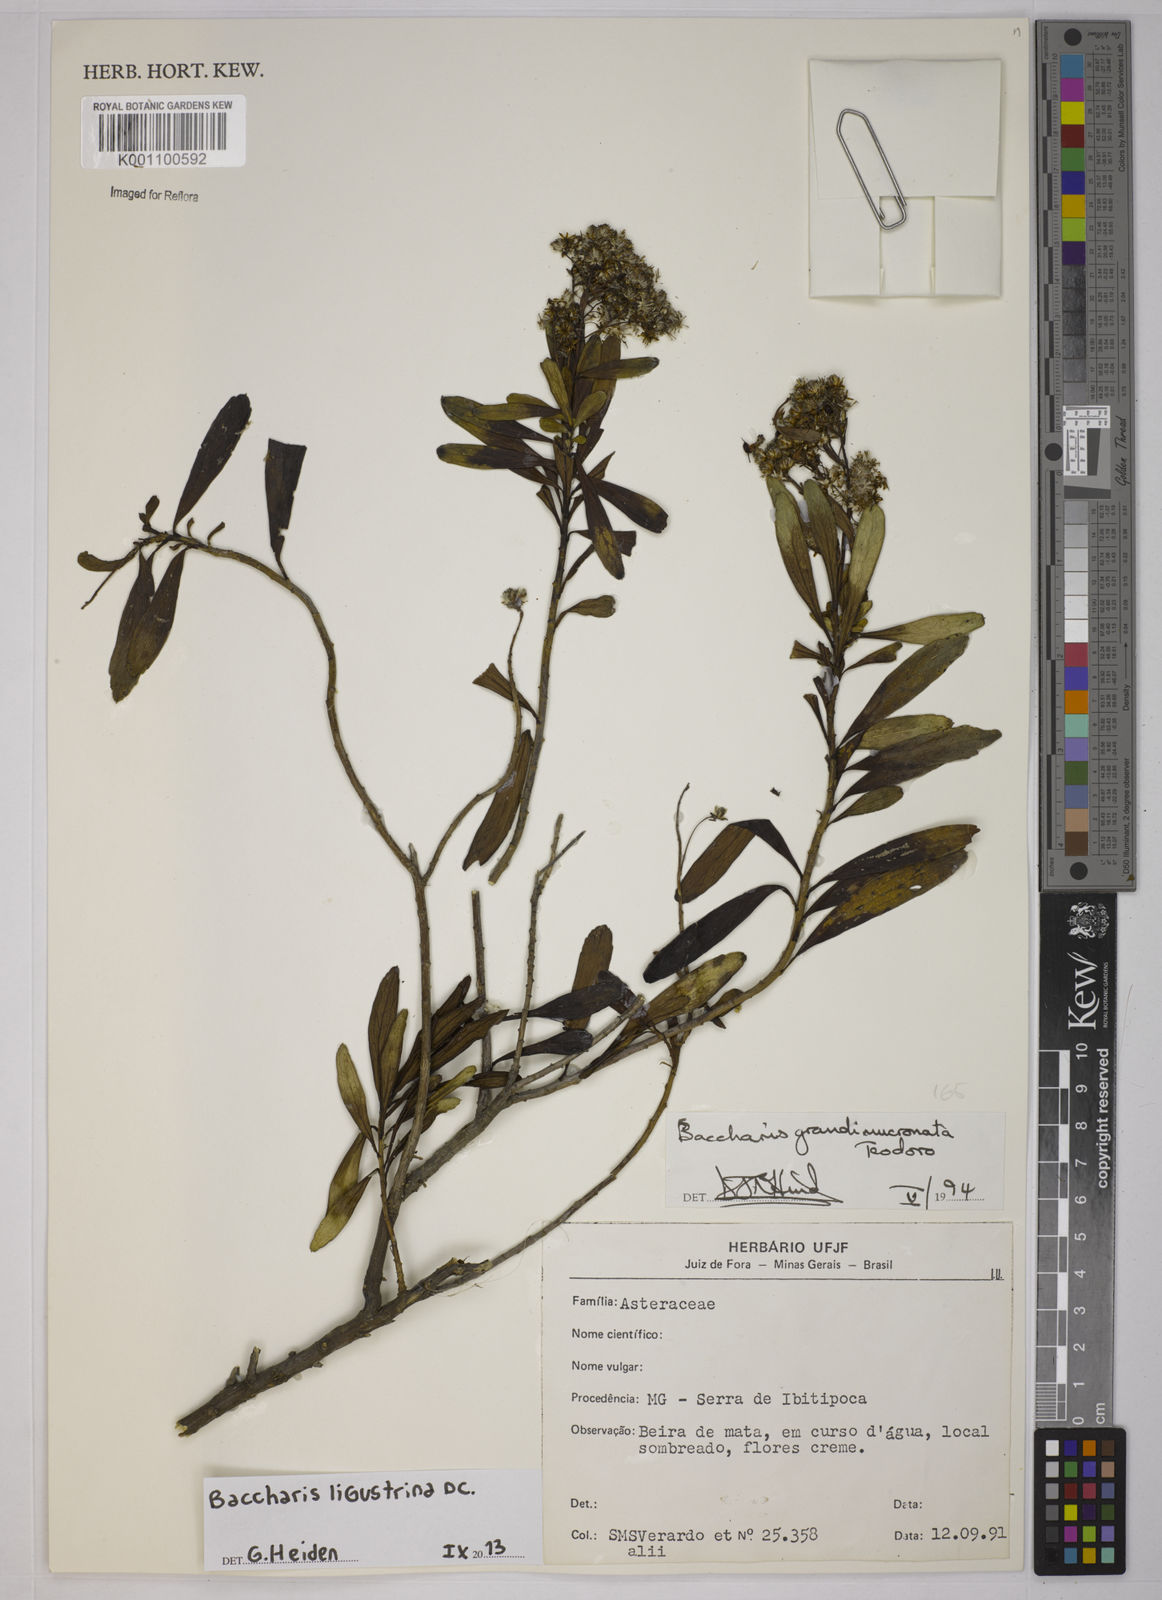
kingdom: Plantae
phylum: Tracheophyta
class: Magnoliopsida
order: Asterales
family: Asteraceae
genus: Baccharis
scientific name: Baccharis ligustrina
